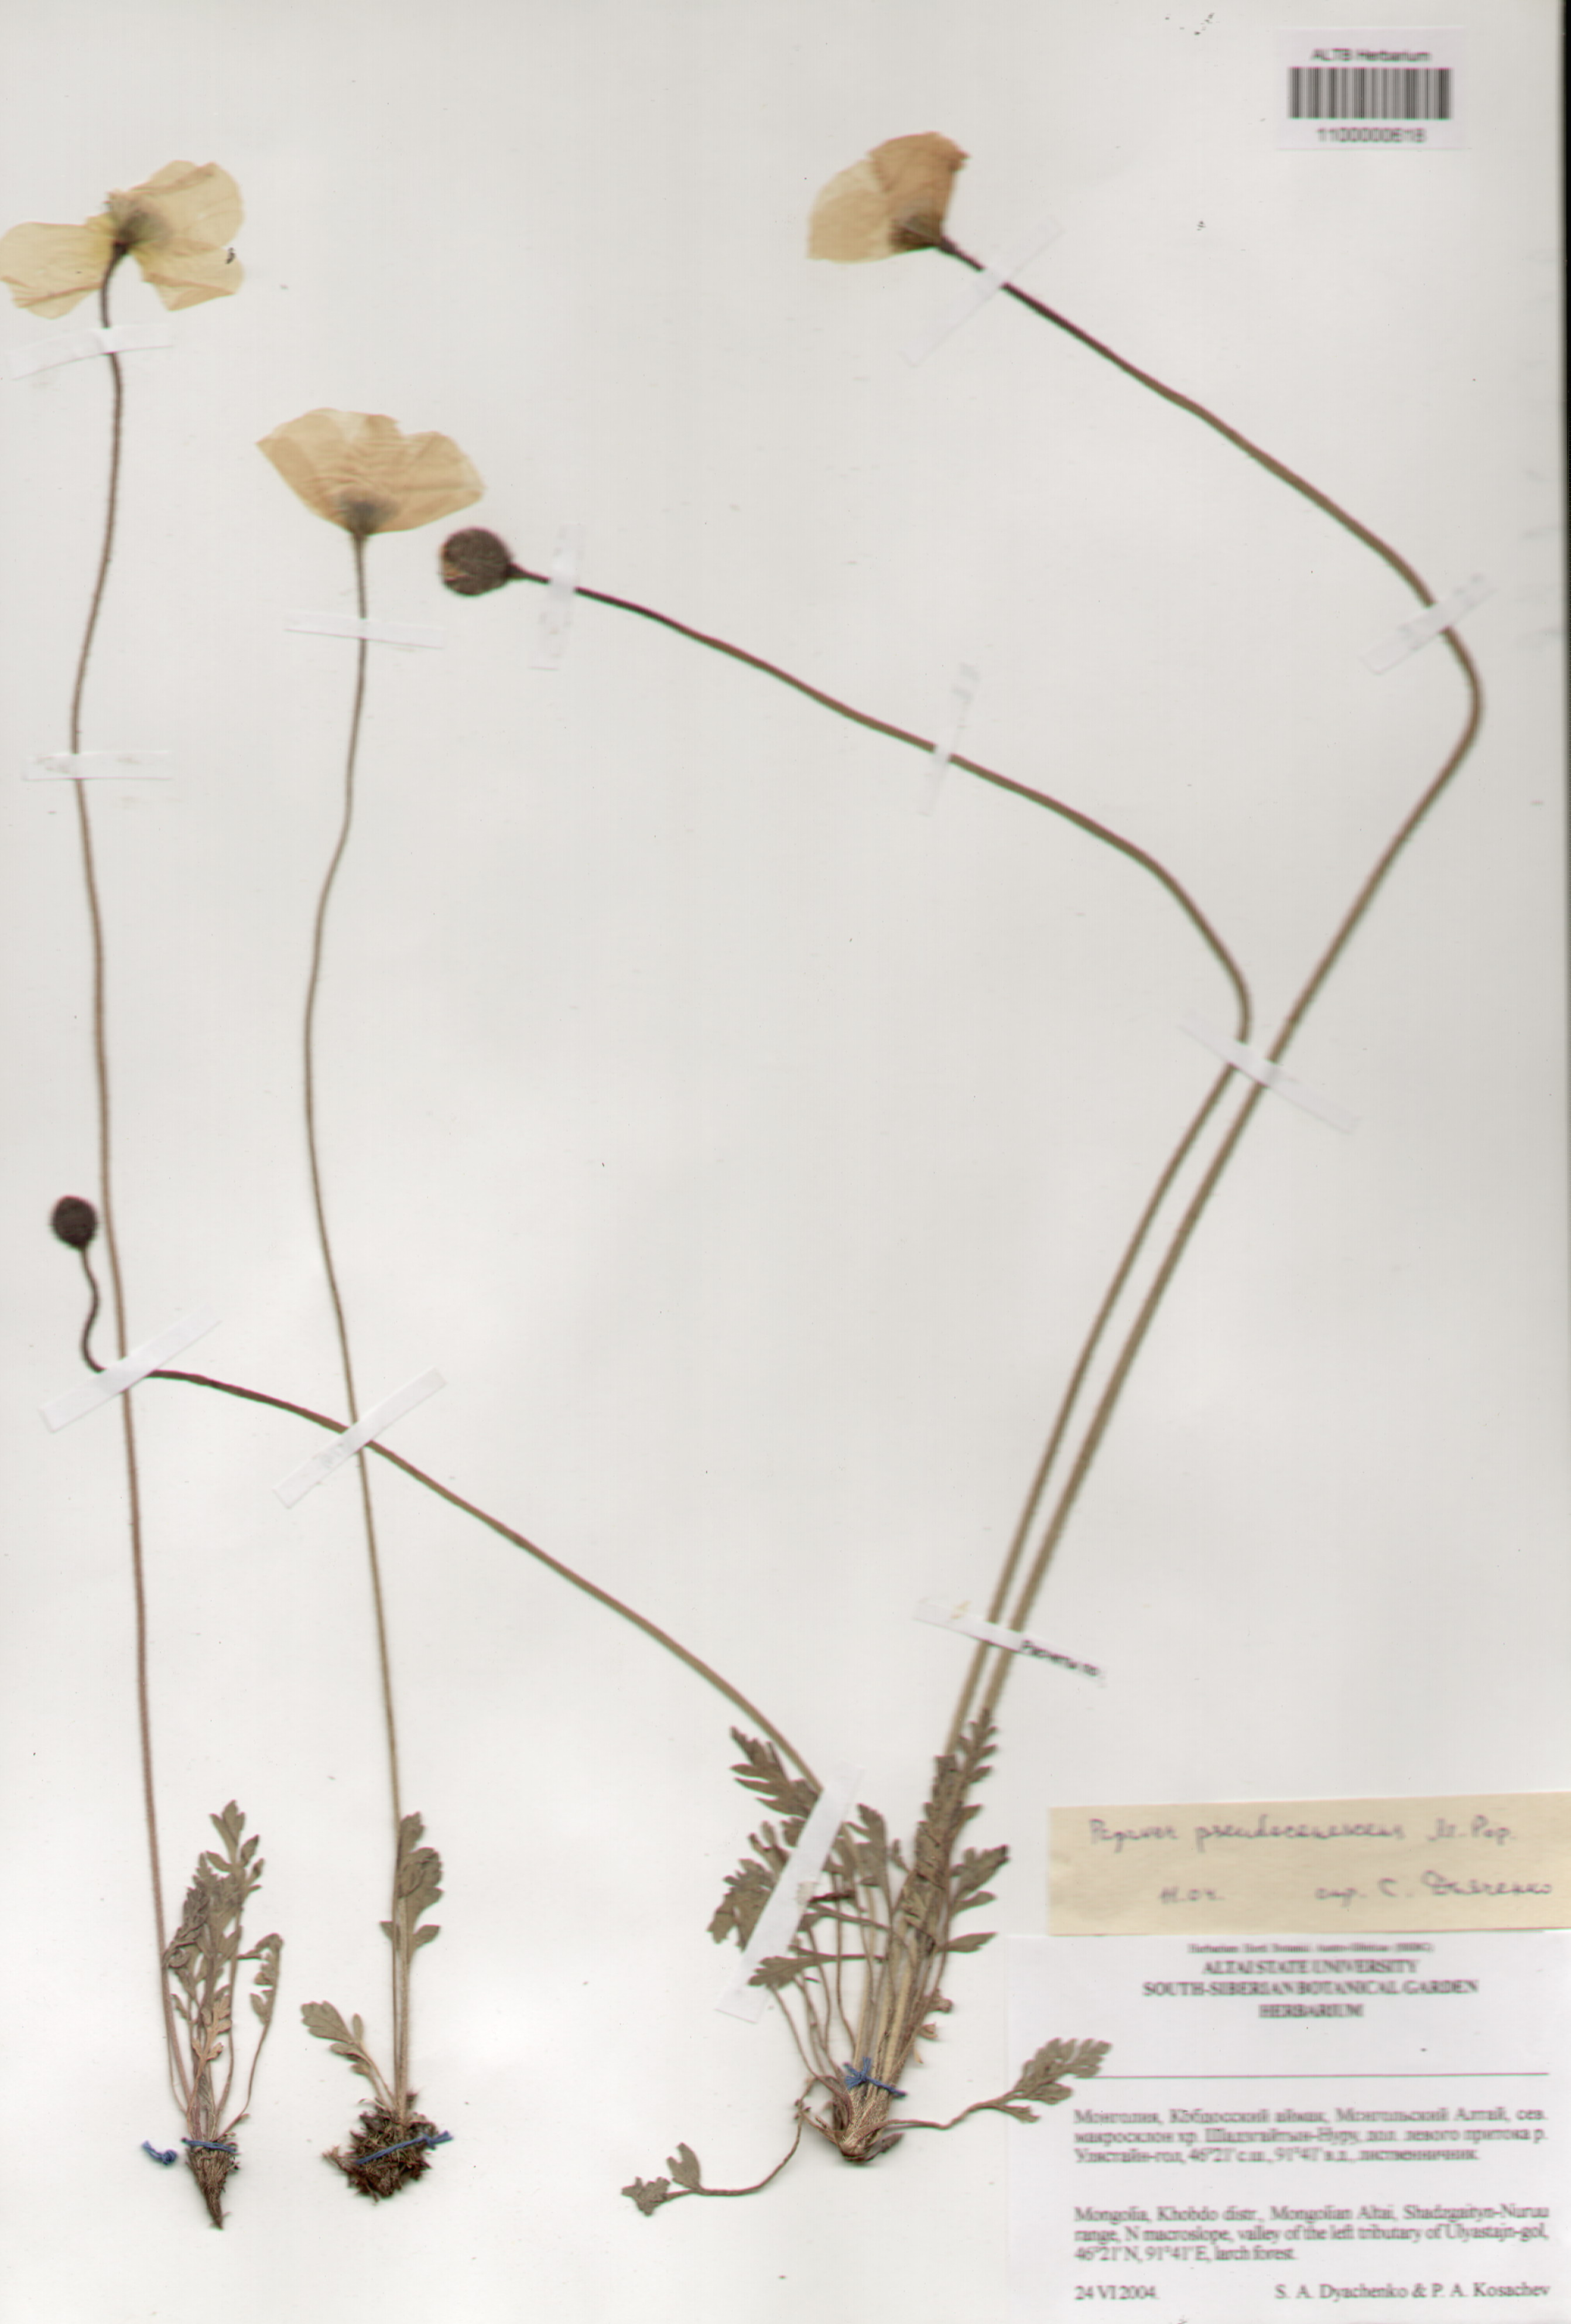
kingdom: Plantae
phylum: Tracheophyta
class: Magnoliopsida
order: Ranunculales
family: Papaveraceae
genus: Papaver
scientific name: Papaver canescens
